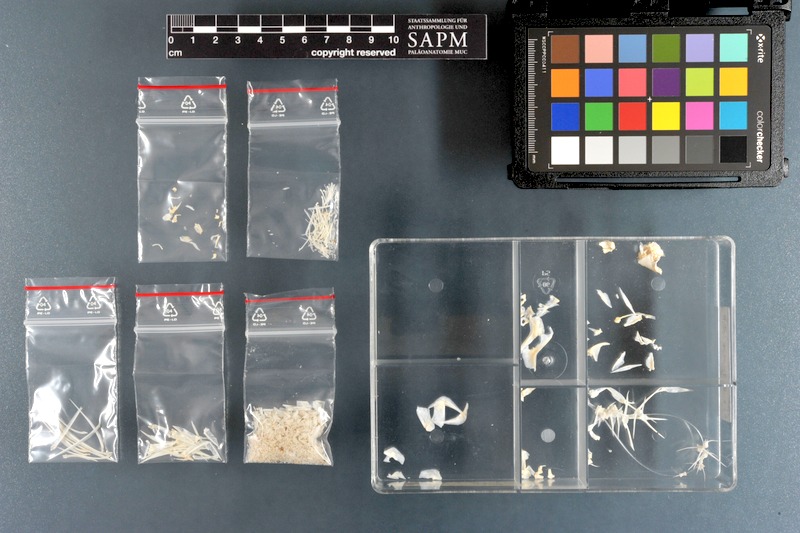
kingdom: Animalia
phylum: Chordata
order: Perciformes
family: Chaetodontidae
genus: Chaetodon
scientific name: Chaetodon paucifasciatus
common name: Crown butterflyfish
